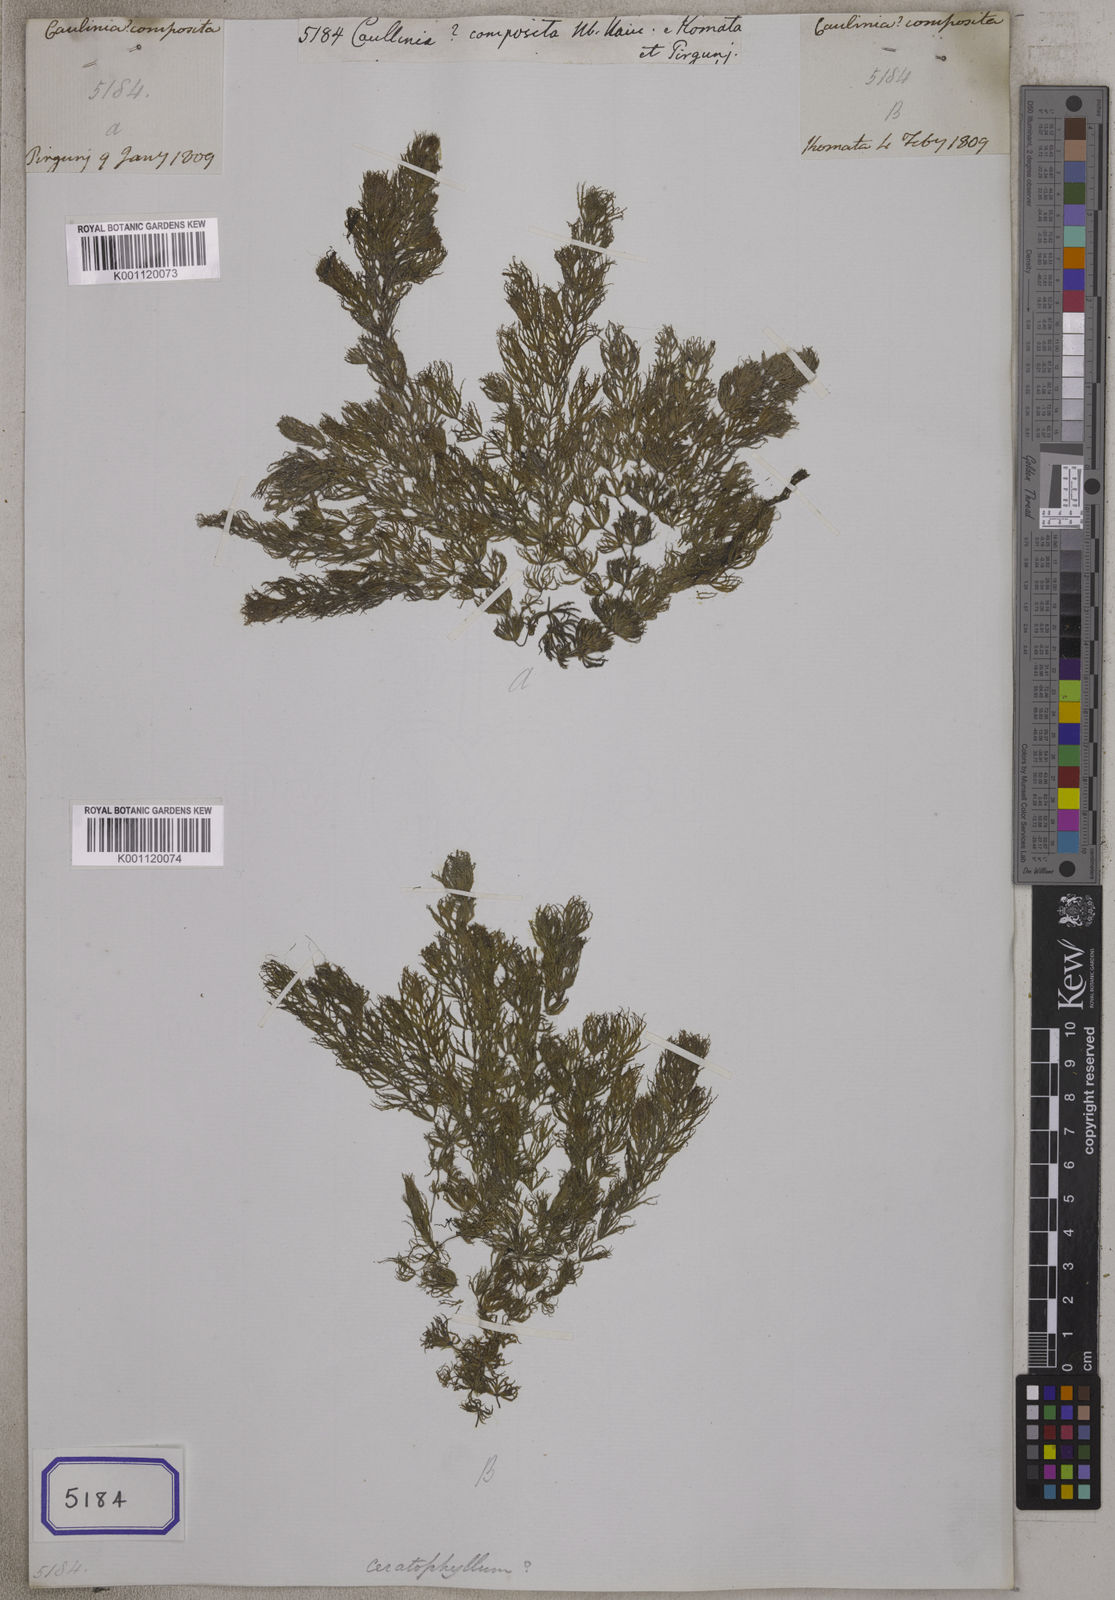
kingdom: Plantae
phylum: Tracheophyta
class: Liliopsida
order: Alismatales
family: Posidoniaceae
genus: Posidonia
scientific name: Posidonia
